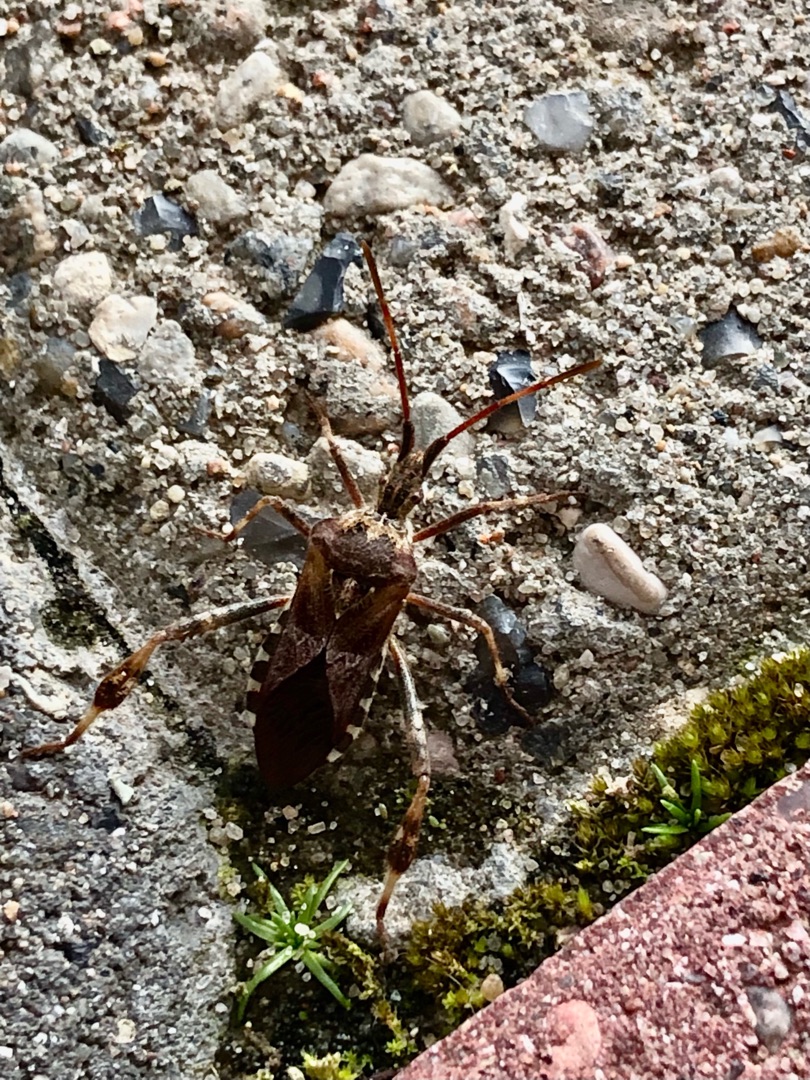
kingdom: Animalia
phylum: Arthropoda
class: Insecta
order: Hemiptera
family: Coreidae
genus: Leptoglossus
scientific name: Leptoglossus occidentalis
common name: Amerikansk fyrretæge
